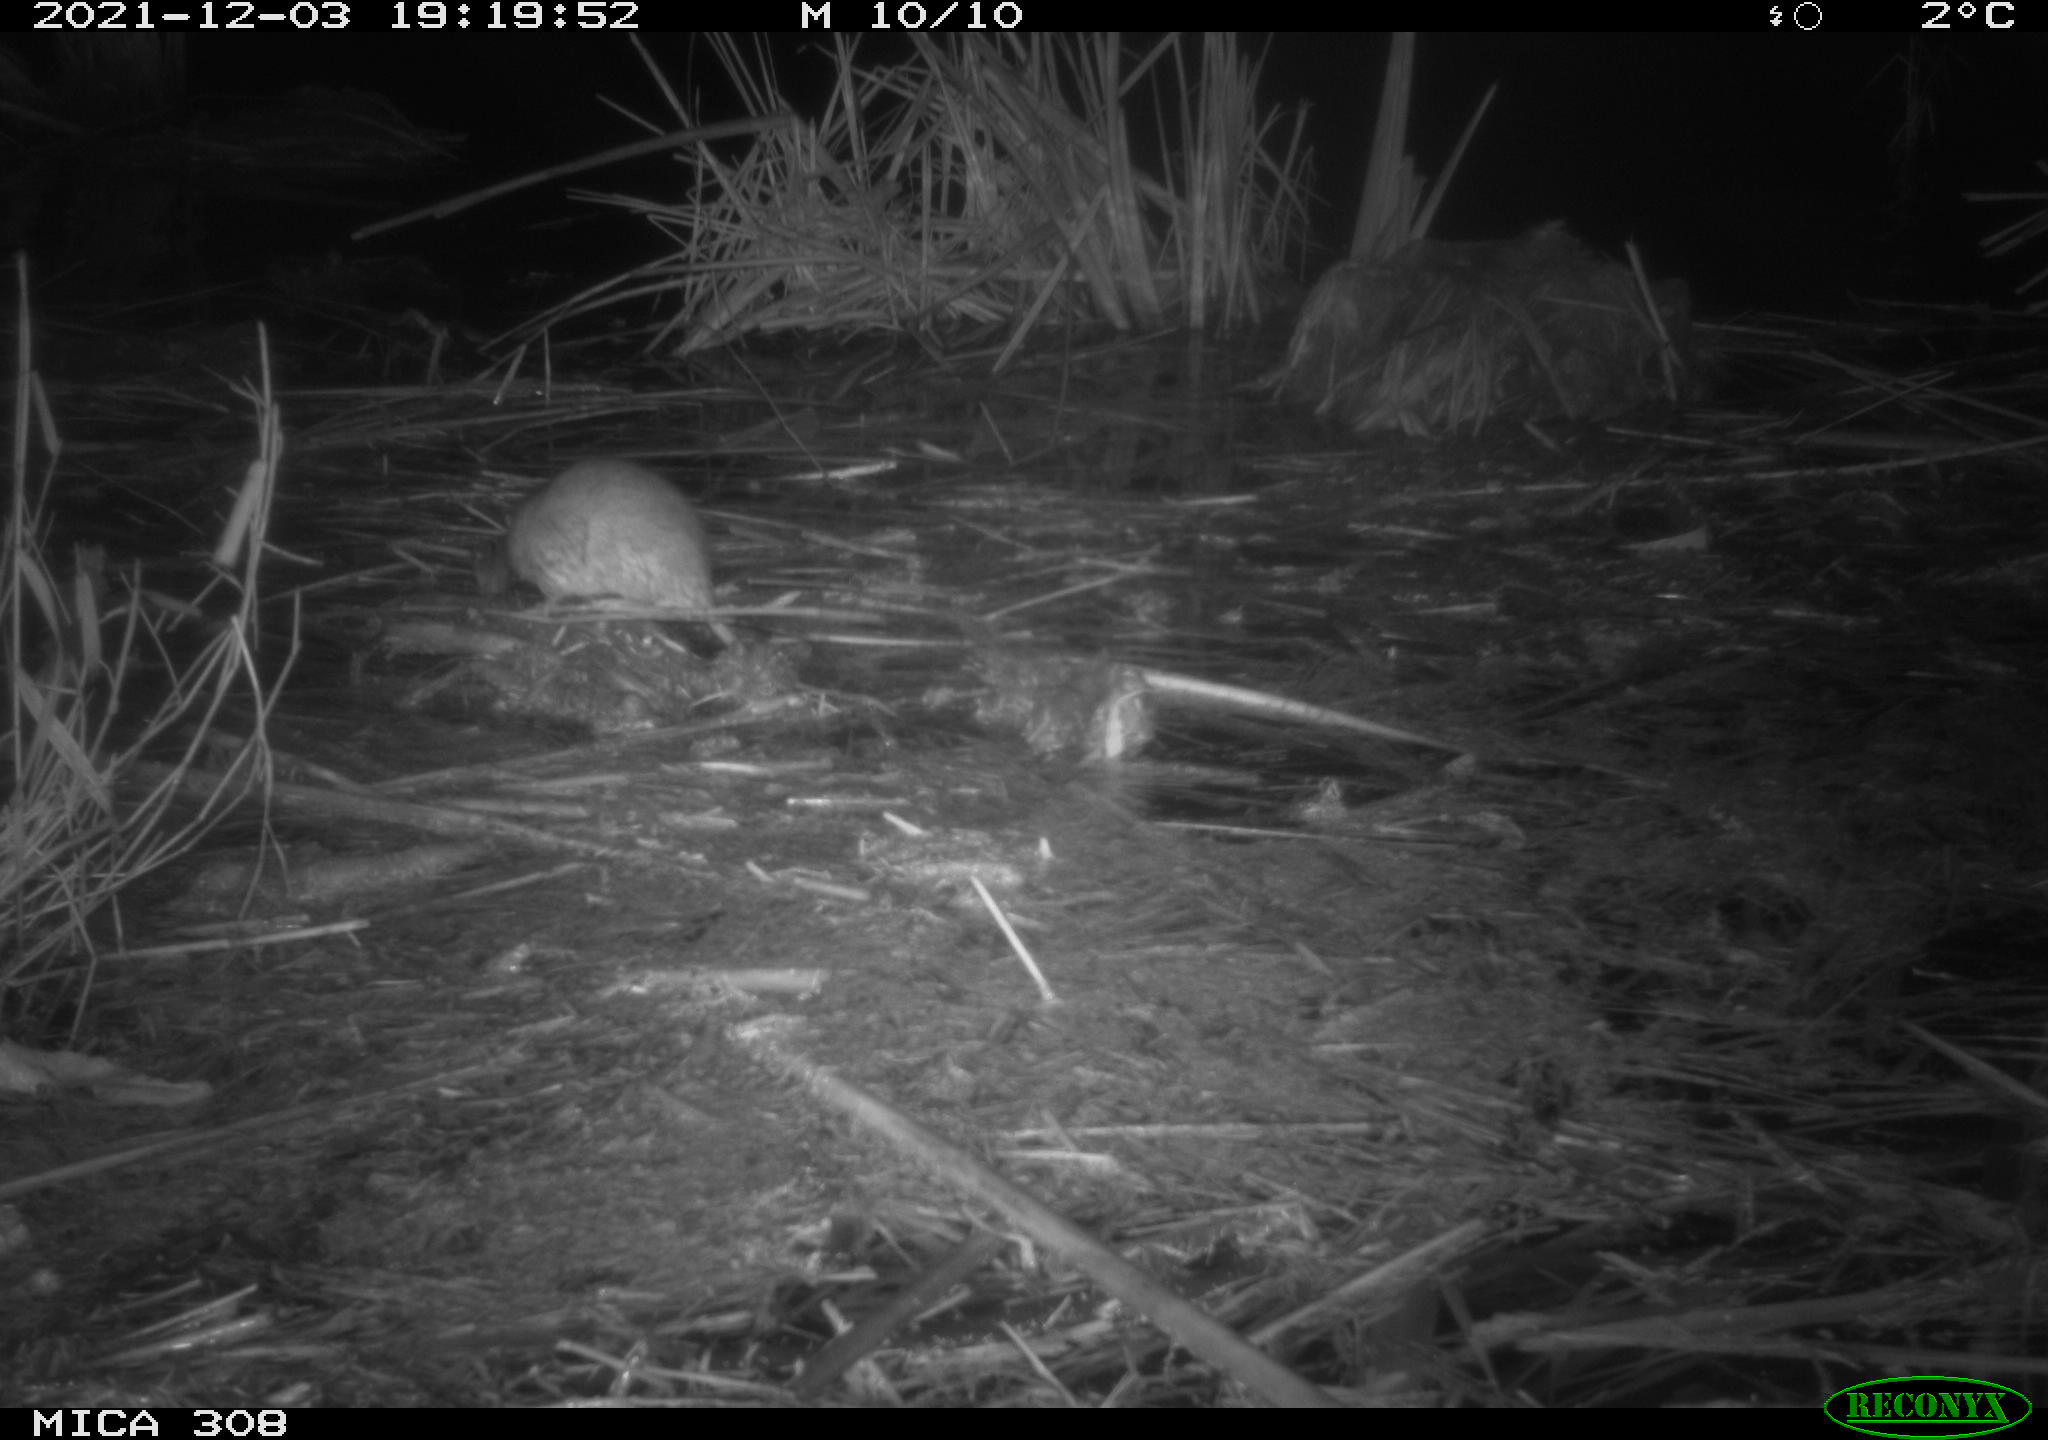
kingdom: Animalia
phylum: Chordata
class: Mammalia
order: Rodentia
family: Muridae
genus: Rattus
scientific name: Rattus norvegicus
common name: Brown rat
